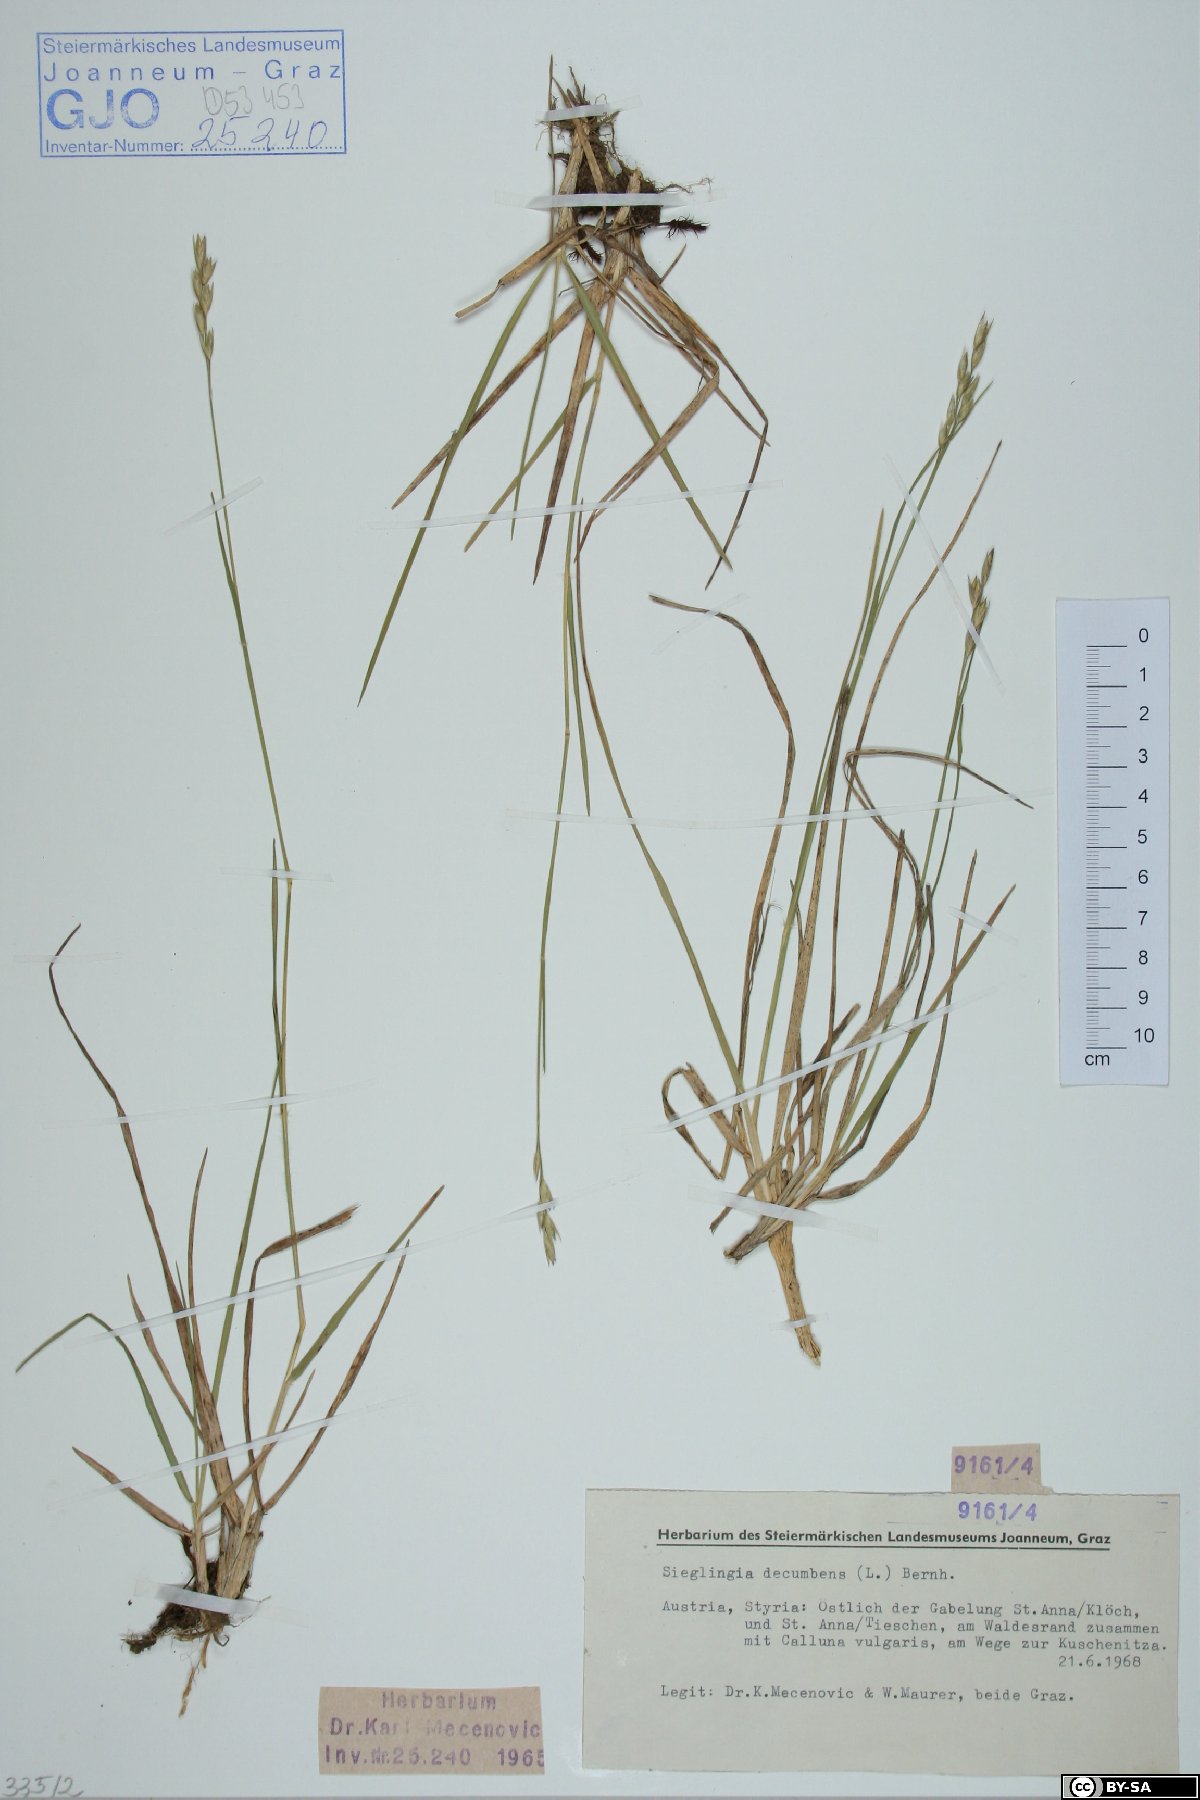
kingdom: Plantae
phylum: Tracheophyta
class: Liliopsida
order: Poales
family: Poaceae
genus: Danthonia
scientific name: Danthonia decumbens
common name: Common heathgrass
